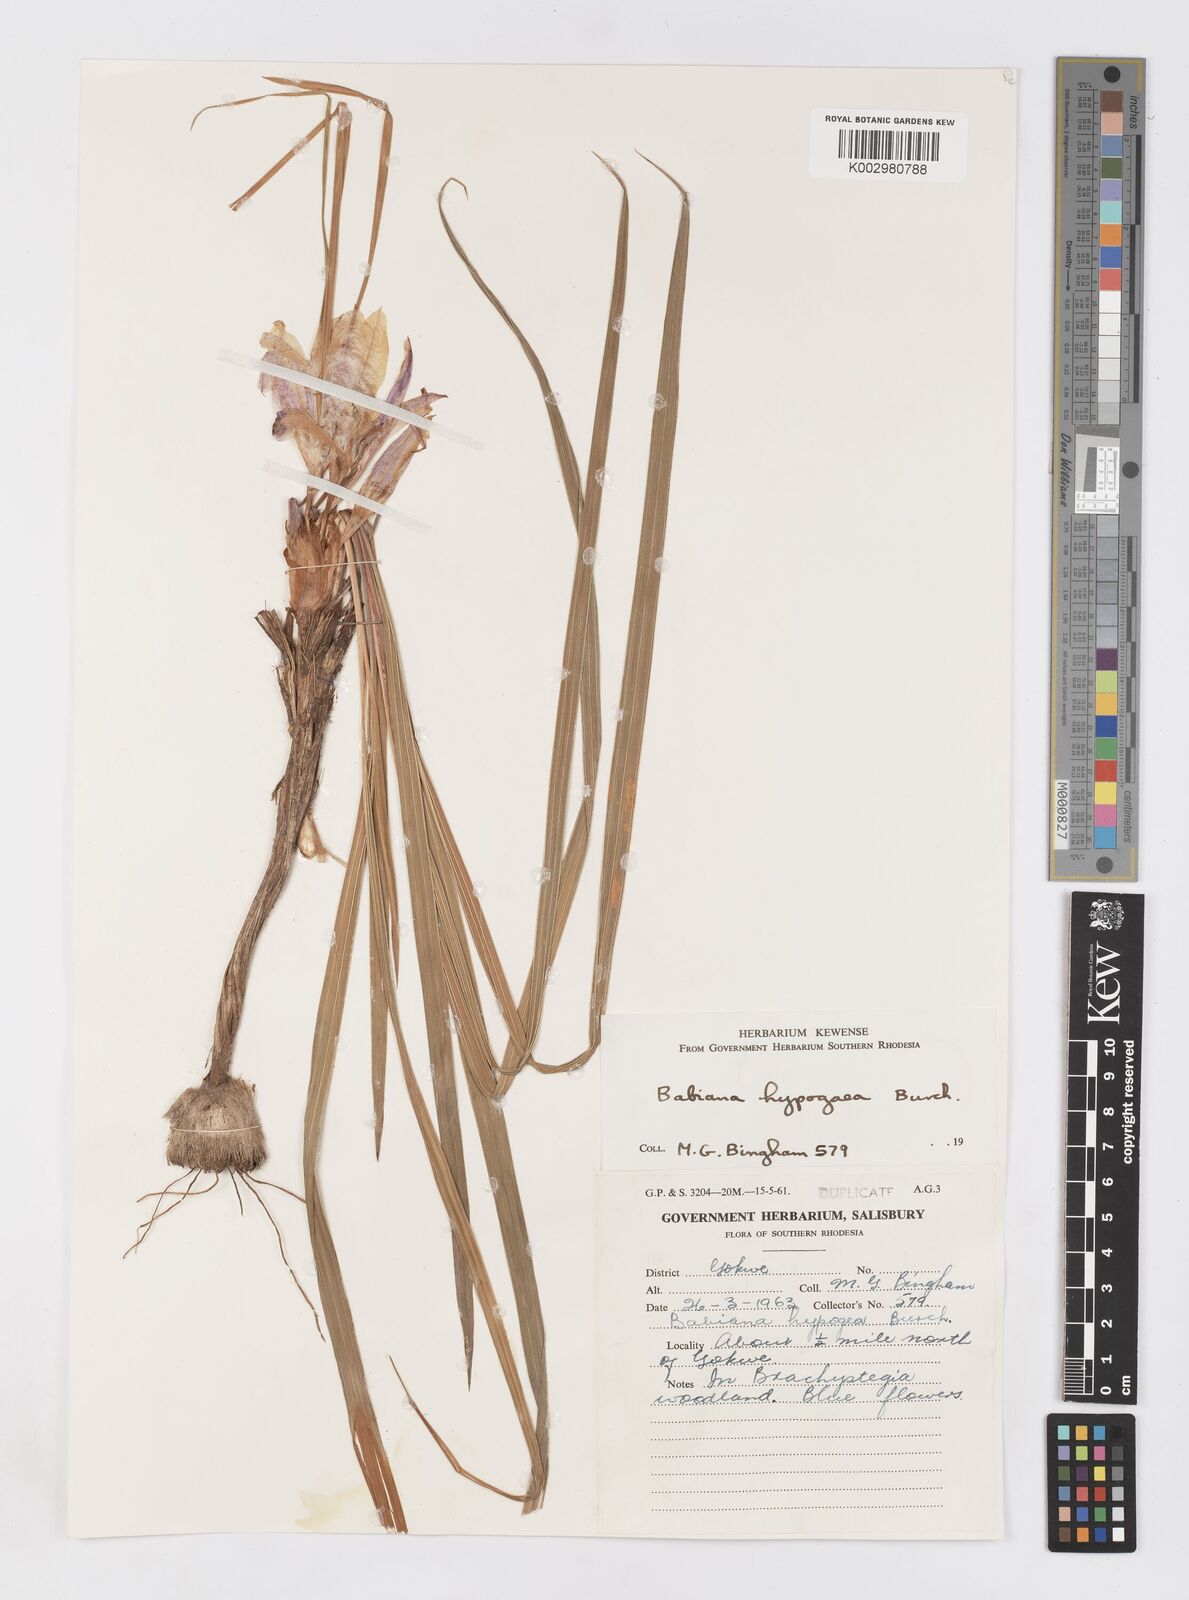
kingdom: Plantae
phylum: Tracheophyta
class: Liliopsida
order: Asparagales
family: Iridaceae
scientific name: Iridaceae
